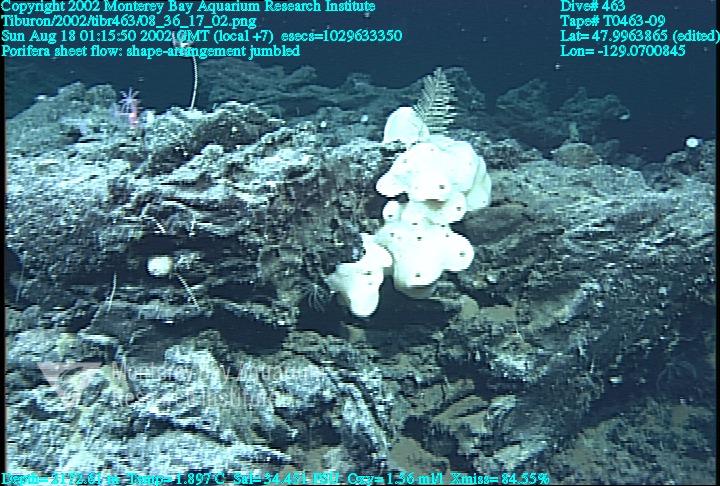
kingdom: Animalia
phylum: Porifera
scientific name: Porifera
